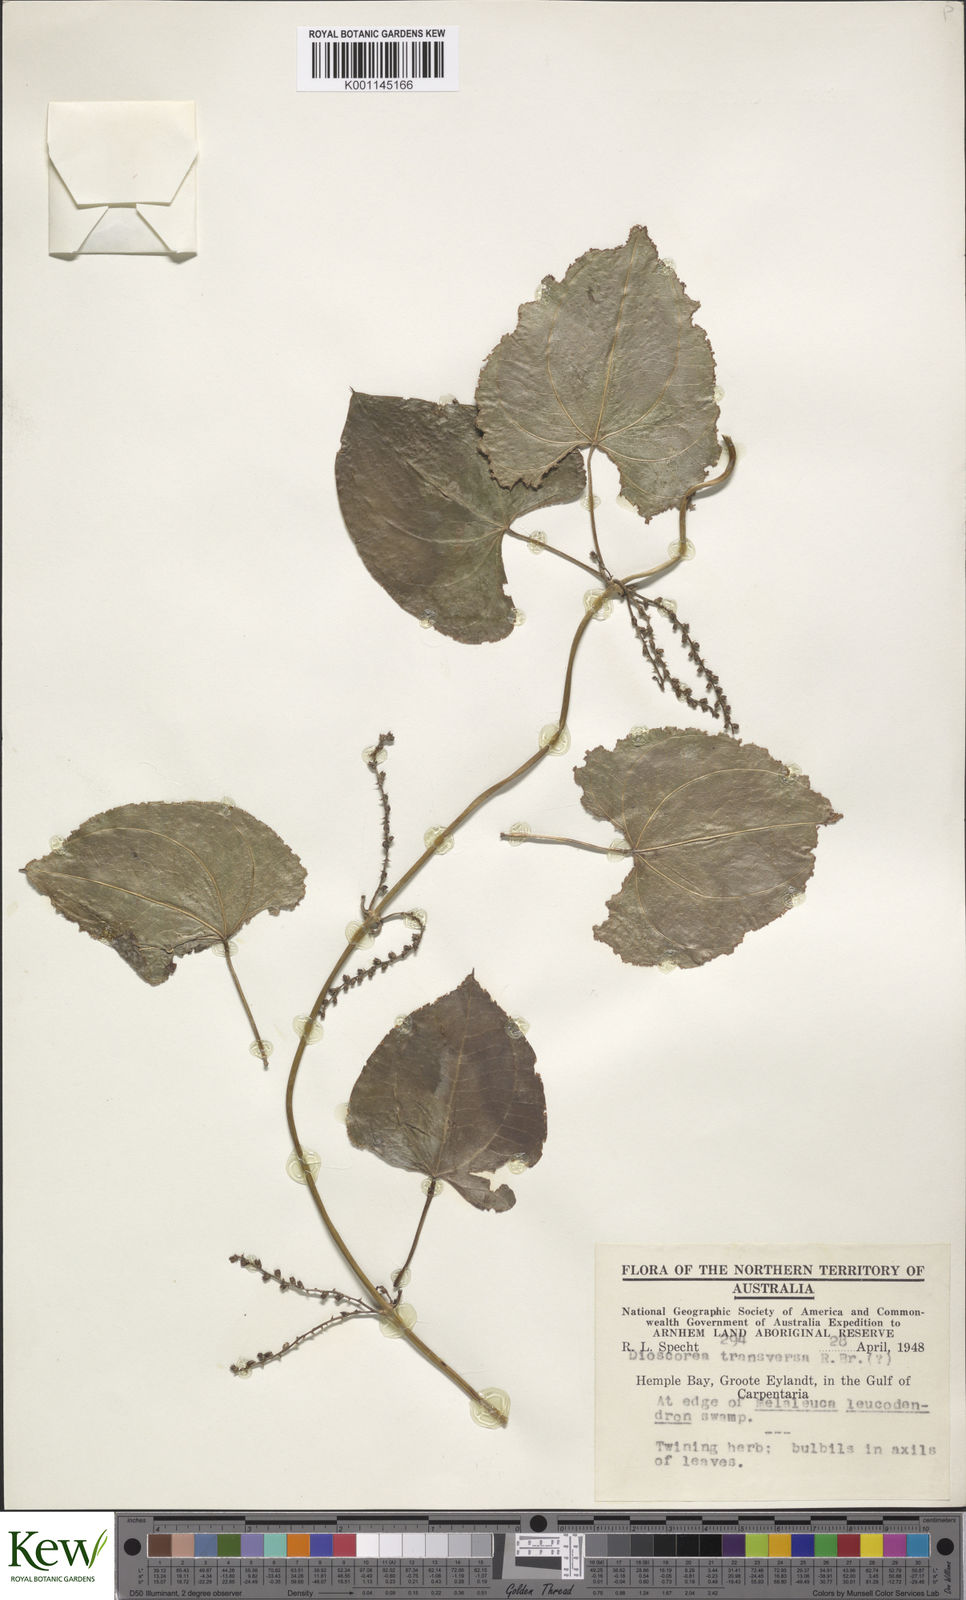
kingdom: Plantae
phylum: Tracheophyta
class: Liliopsida
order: Dioscoreales
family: Dioscoreaceae
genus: Dioscorea
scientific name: Dioscorea transversa
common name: Long yam
